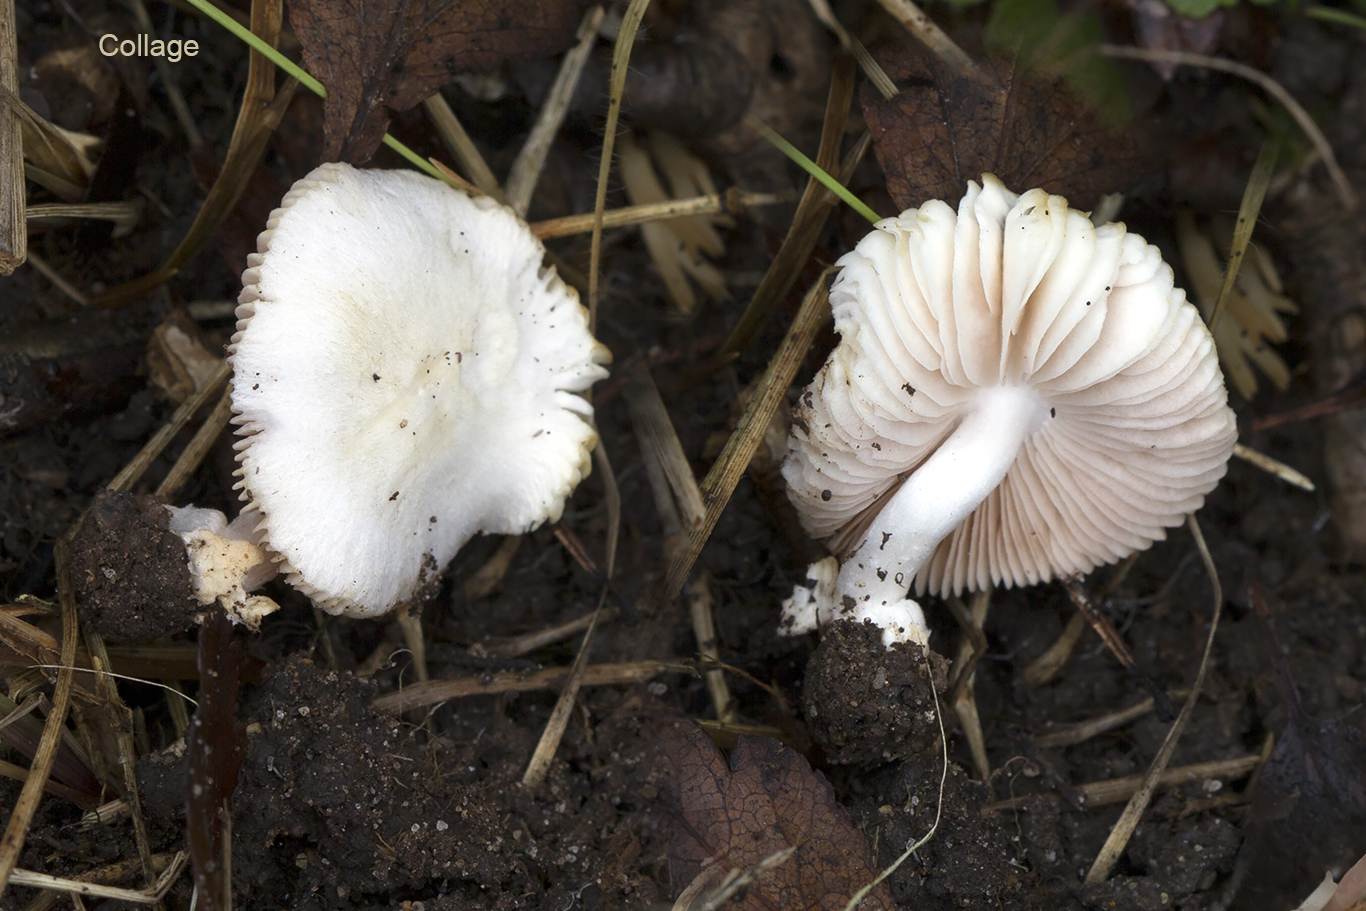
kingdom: Fungi
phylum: Basidiomycota
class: Agaricomycetes
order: Agaricales
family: Pluteaceae
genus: Volvariella
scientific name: Volvariella
